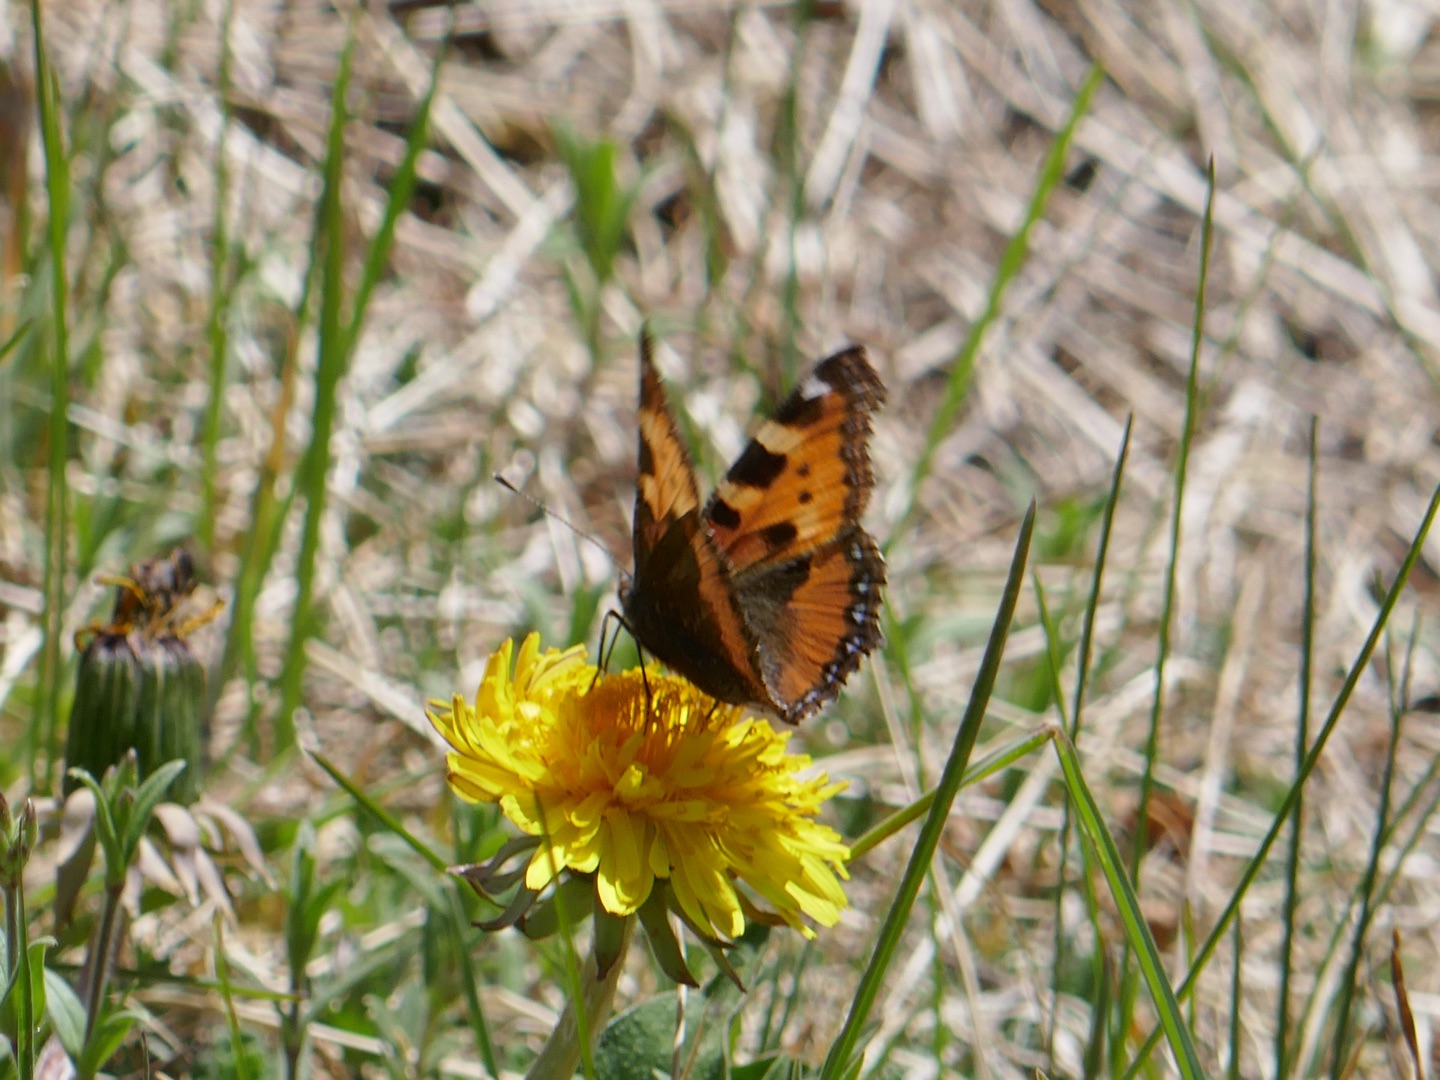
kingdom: Animalia
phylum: Arthropoda
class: Insecta
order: Lepidoptera
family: Nymphalidae
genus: Aglais
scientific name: Aglais urticae
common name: Nældens takvinge
